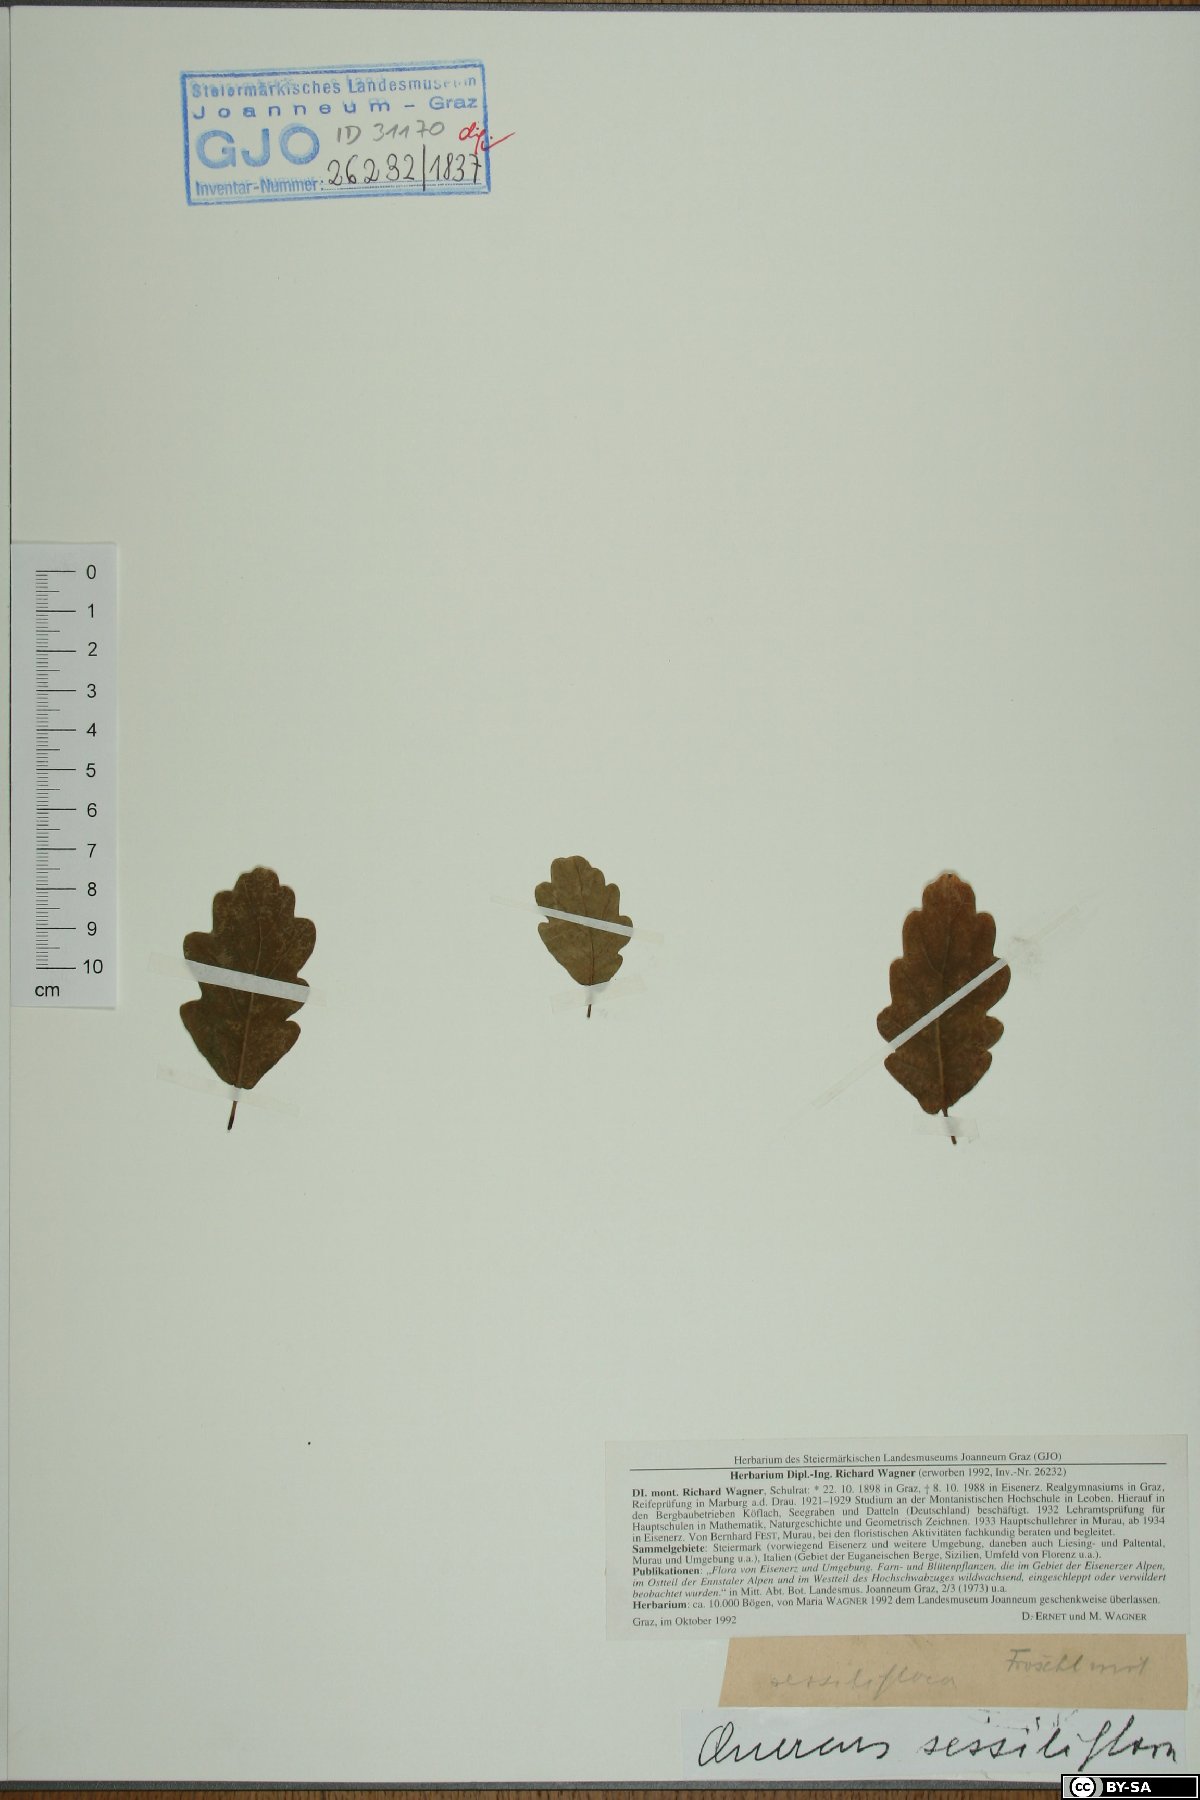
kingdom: Plantae
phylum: Tracheophyta
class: Magnoliopsida
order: Fagales
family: Fagaceae
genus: Quercus
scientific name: Quercus petraea
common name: Sessile oak
